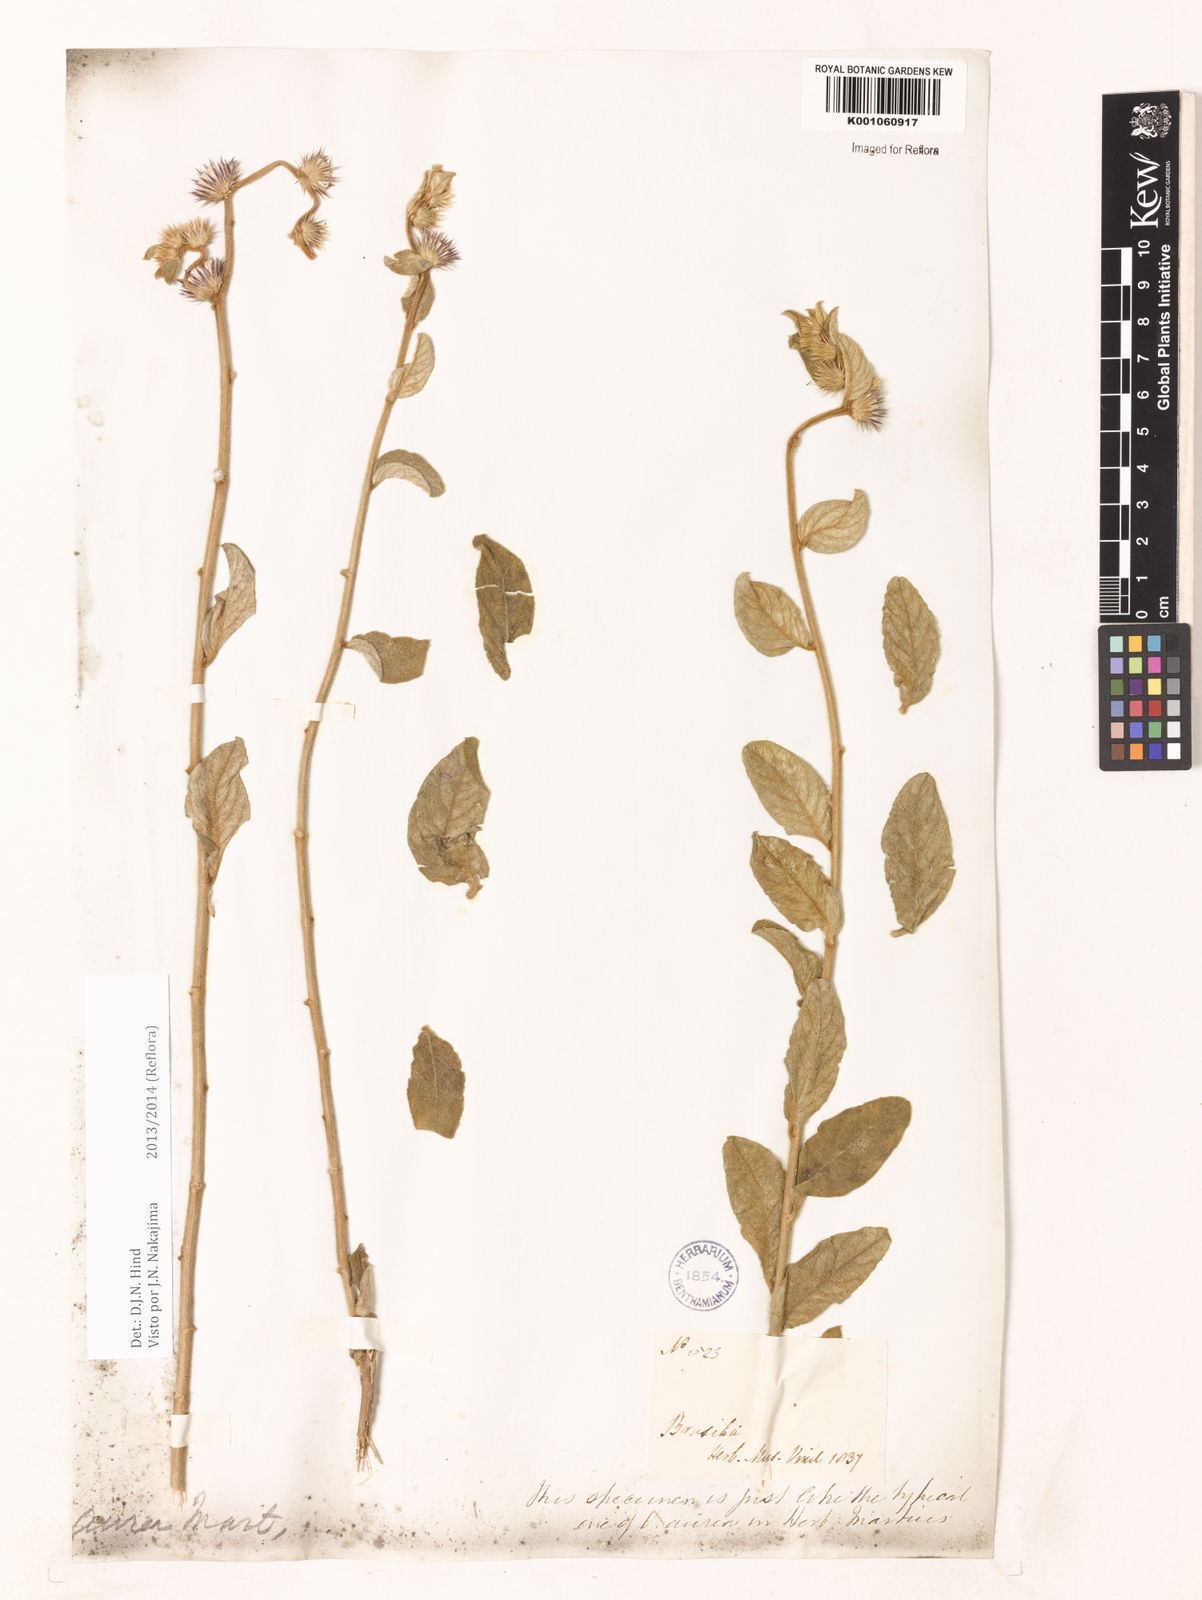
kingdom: Plantae
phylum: Tracheophyta
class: Magnoliopsida
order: Asterales
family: Asteraceae
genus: Lepidaploa
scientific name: Lepidaploa aurea
